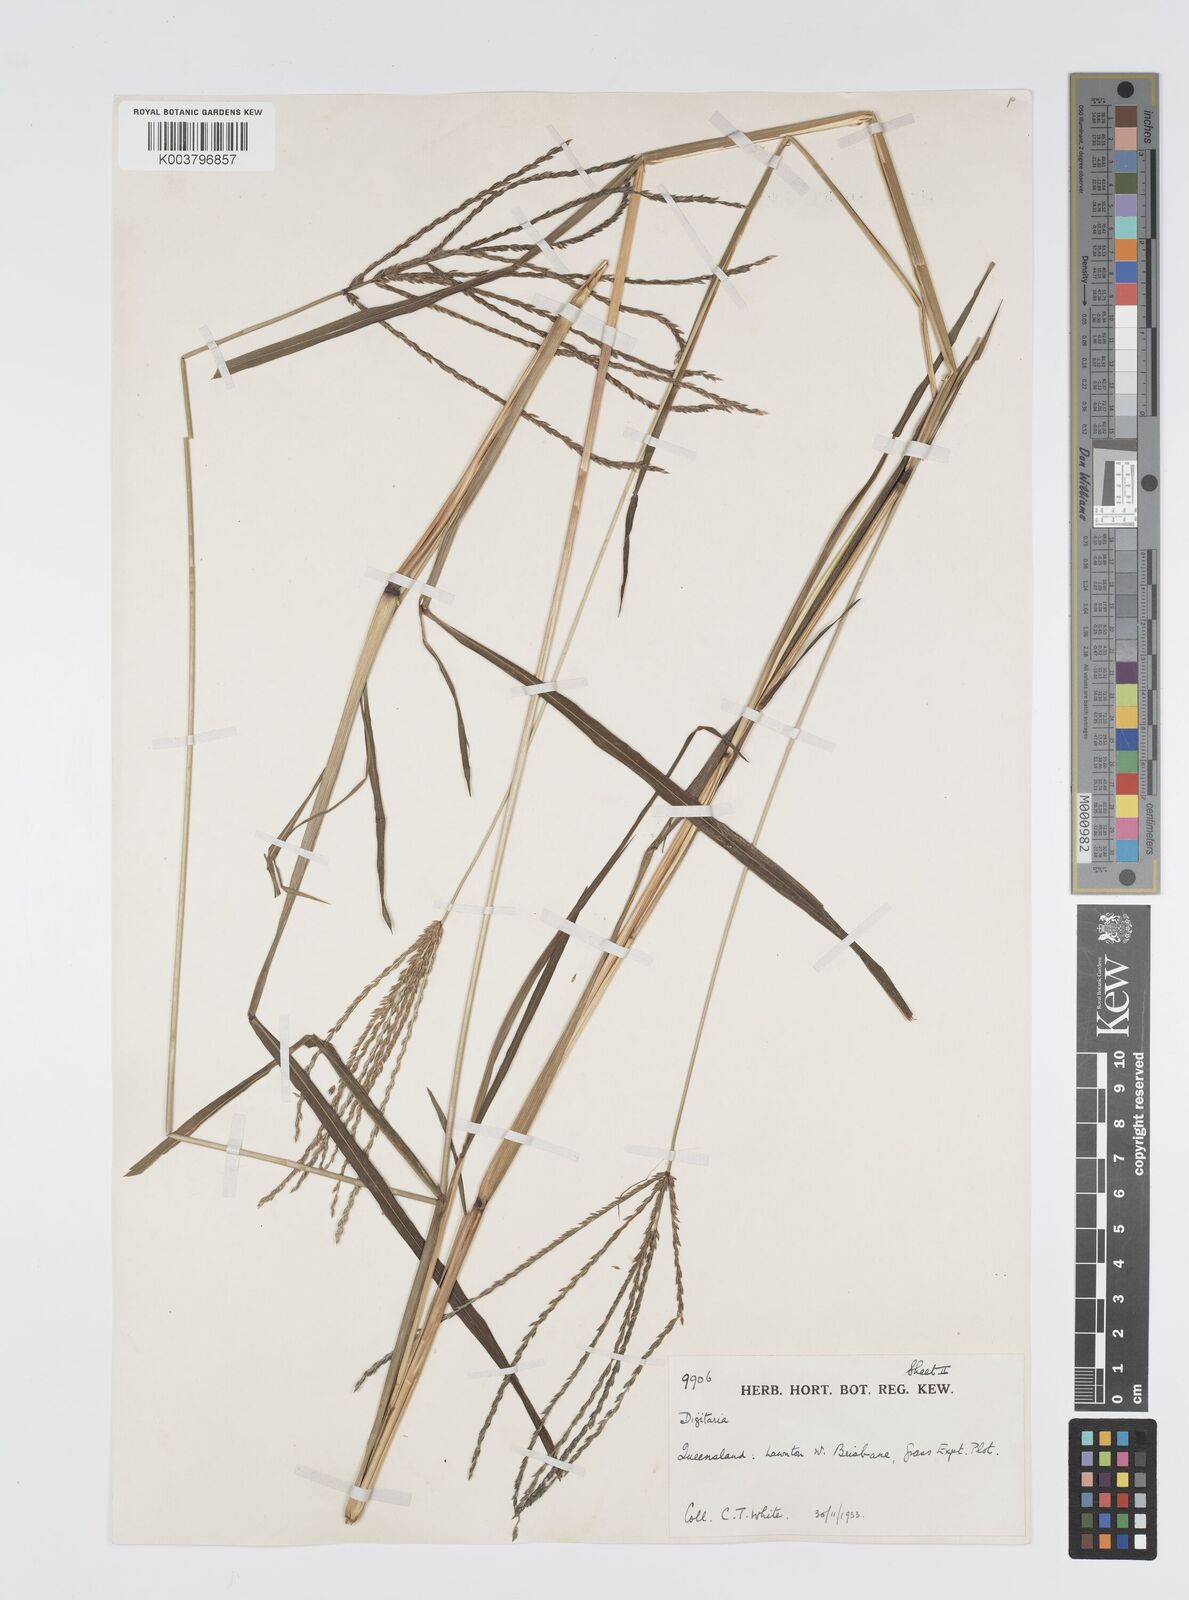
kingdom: Plantae
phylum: Tracheophyta
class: Liliopsida
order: Poales
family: Poaceae
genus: Digitaria
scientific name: Digitaria milanjiana
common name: Madagascar crabgrass
